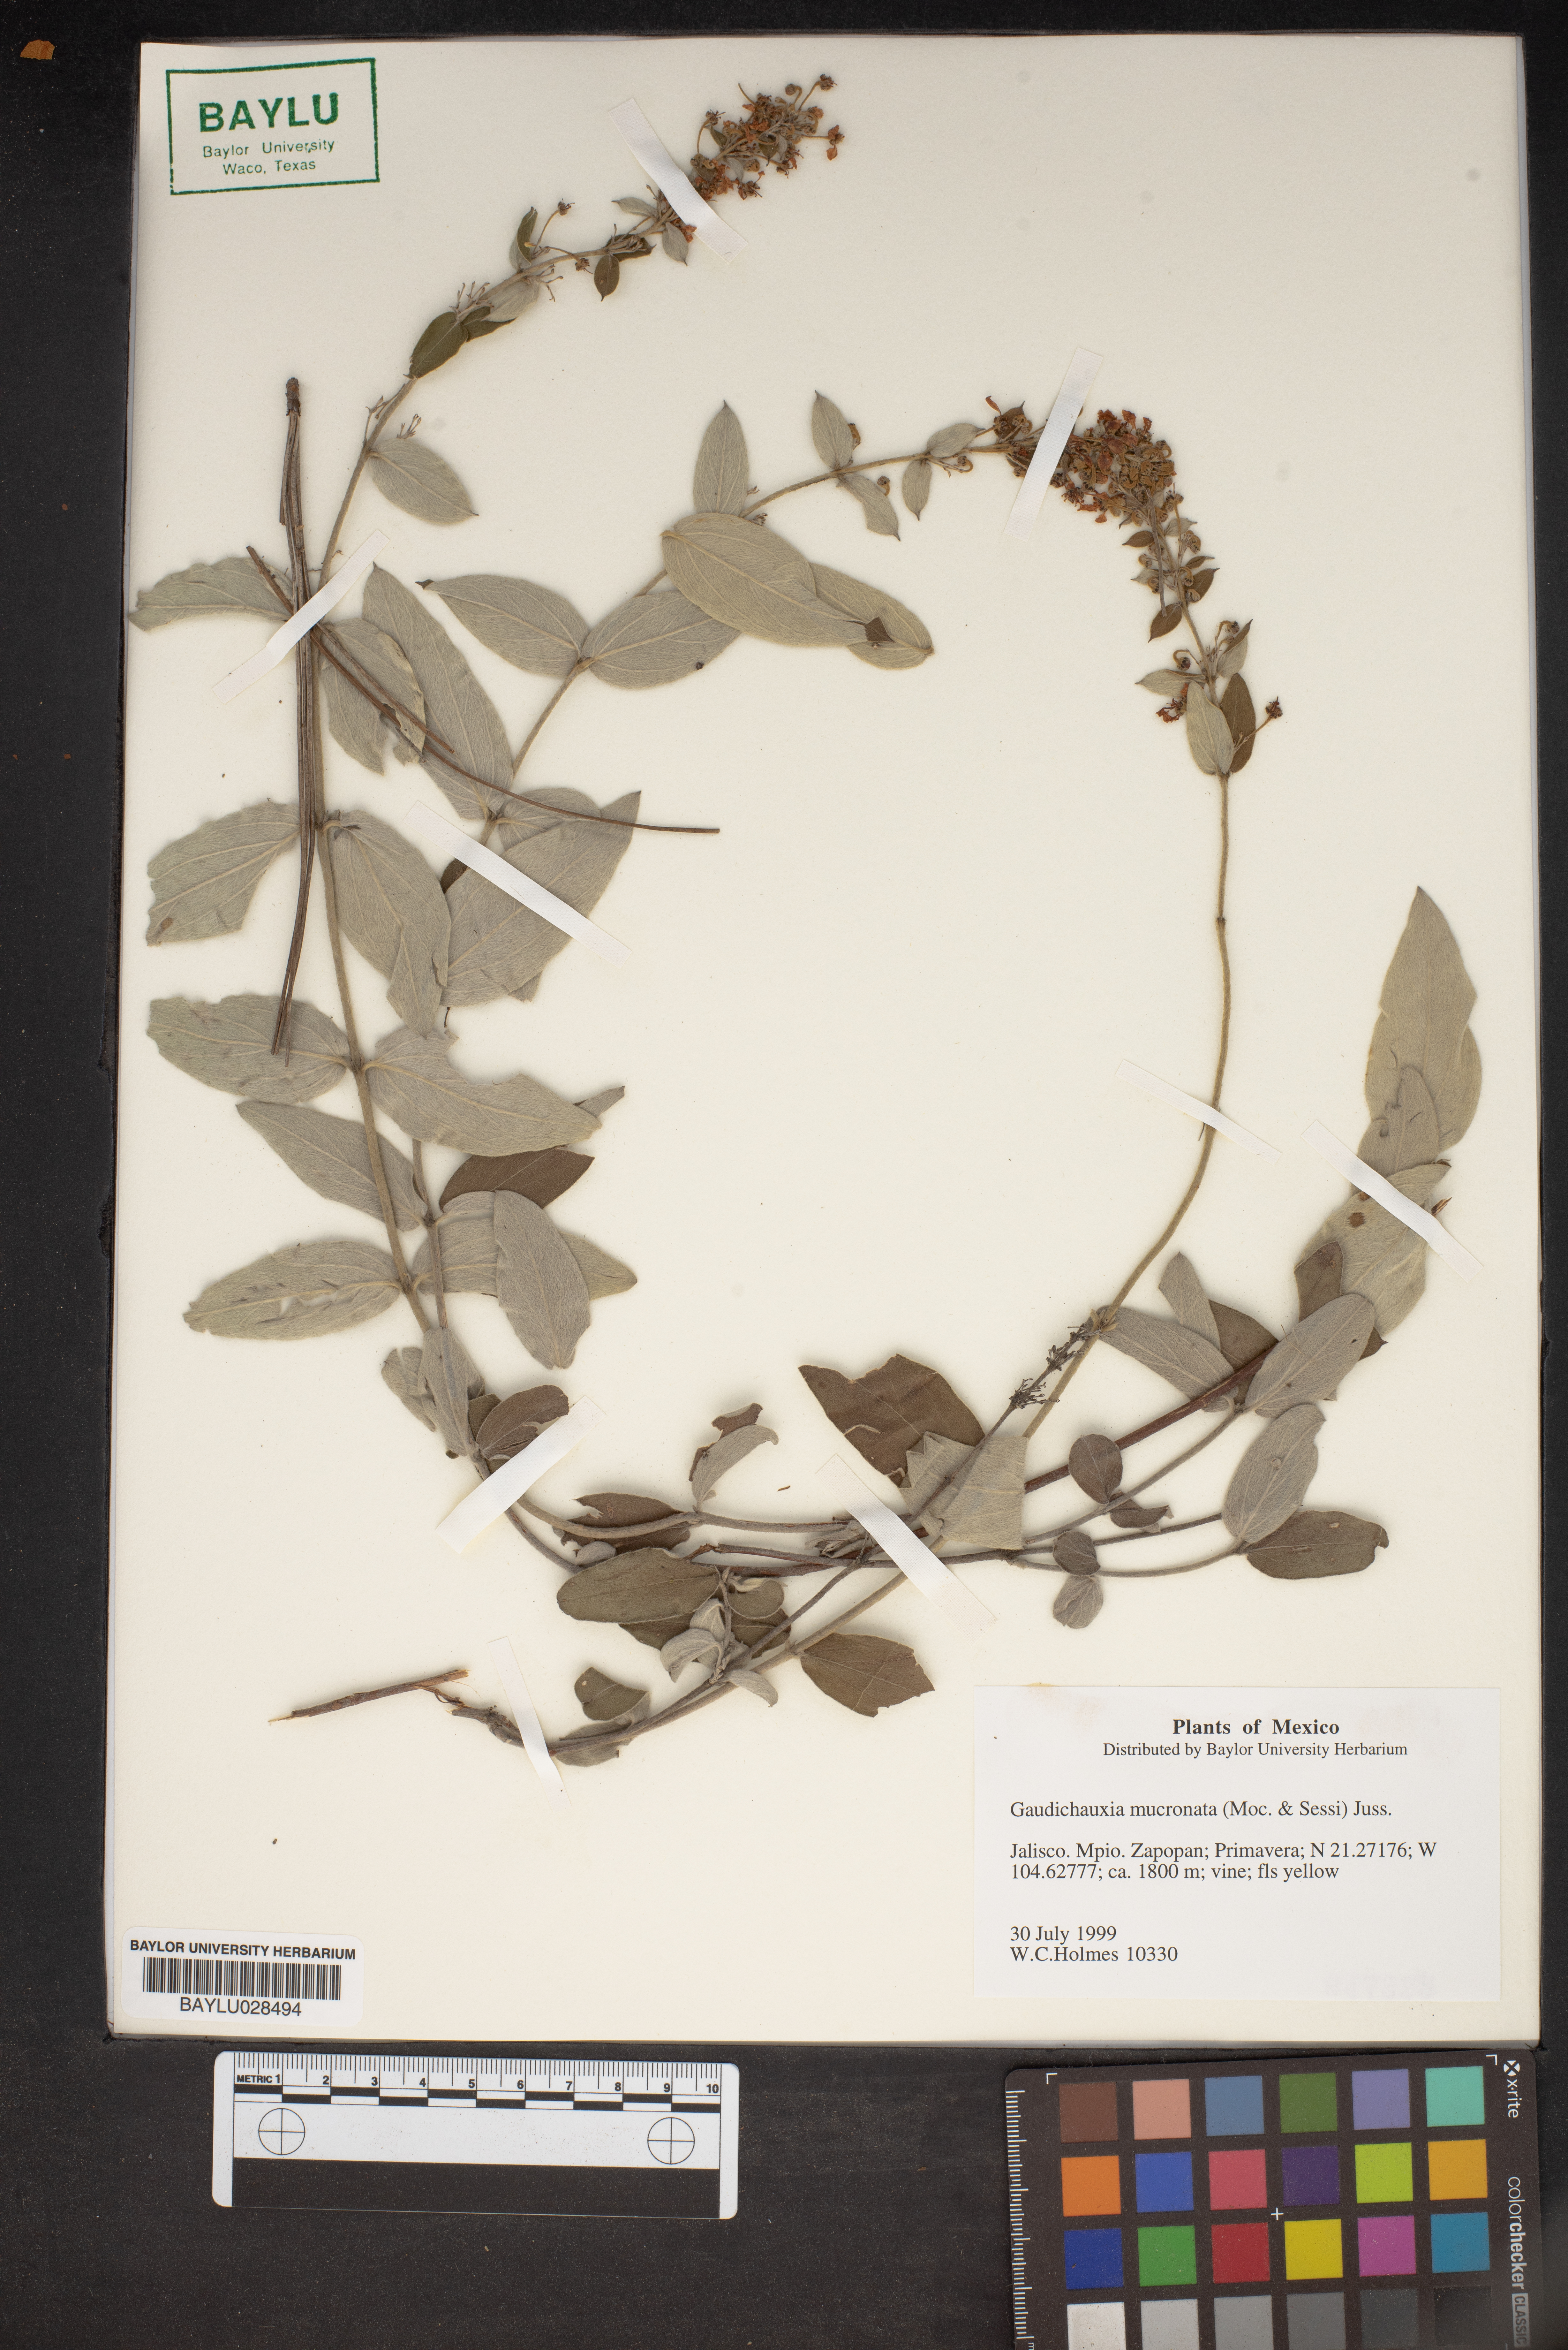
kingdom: Plantae
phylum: Tracheophyta
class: Magnoliopsida
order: Malpighiales
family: Malpighiaceae
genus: Gaudichaudia
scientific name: Gaudichaudia mucronata
